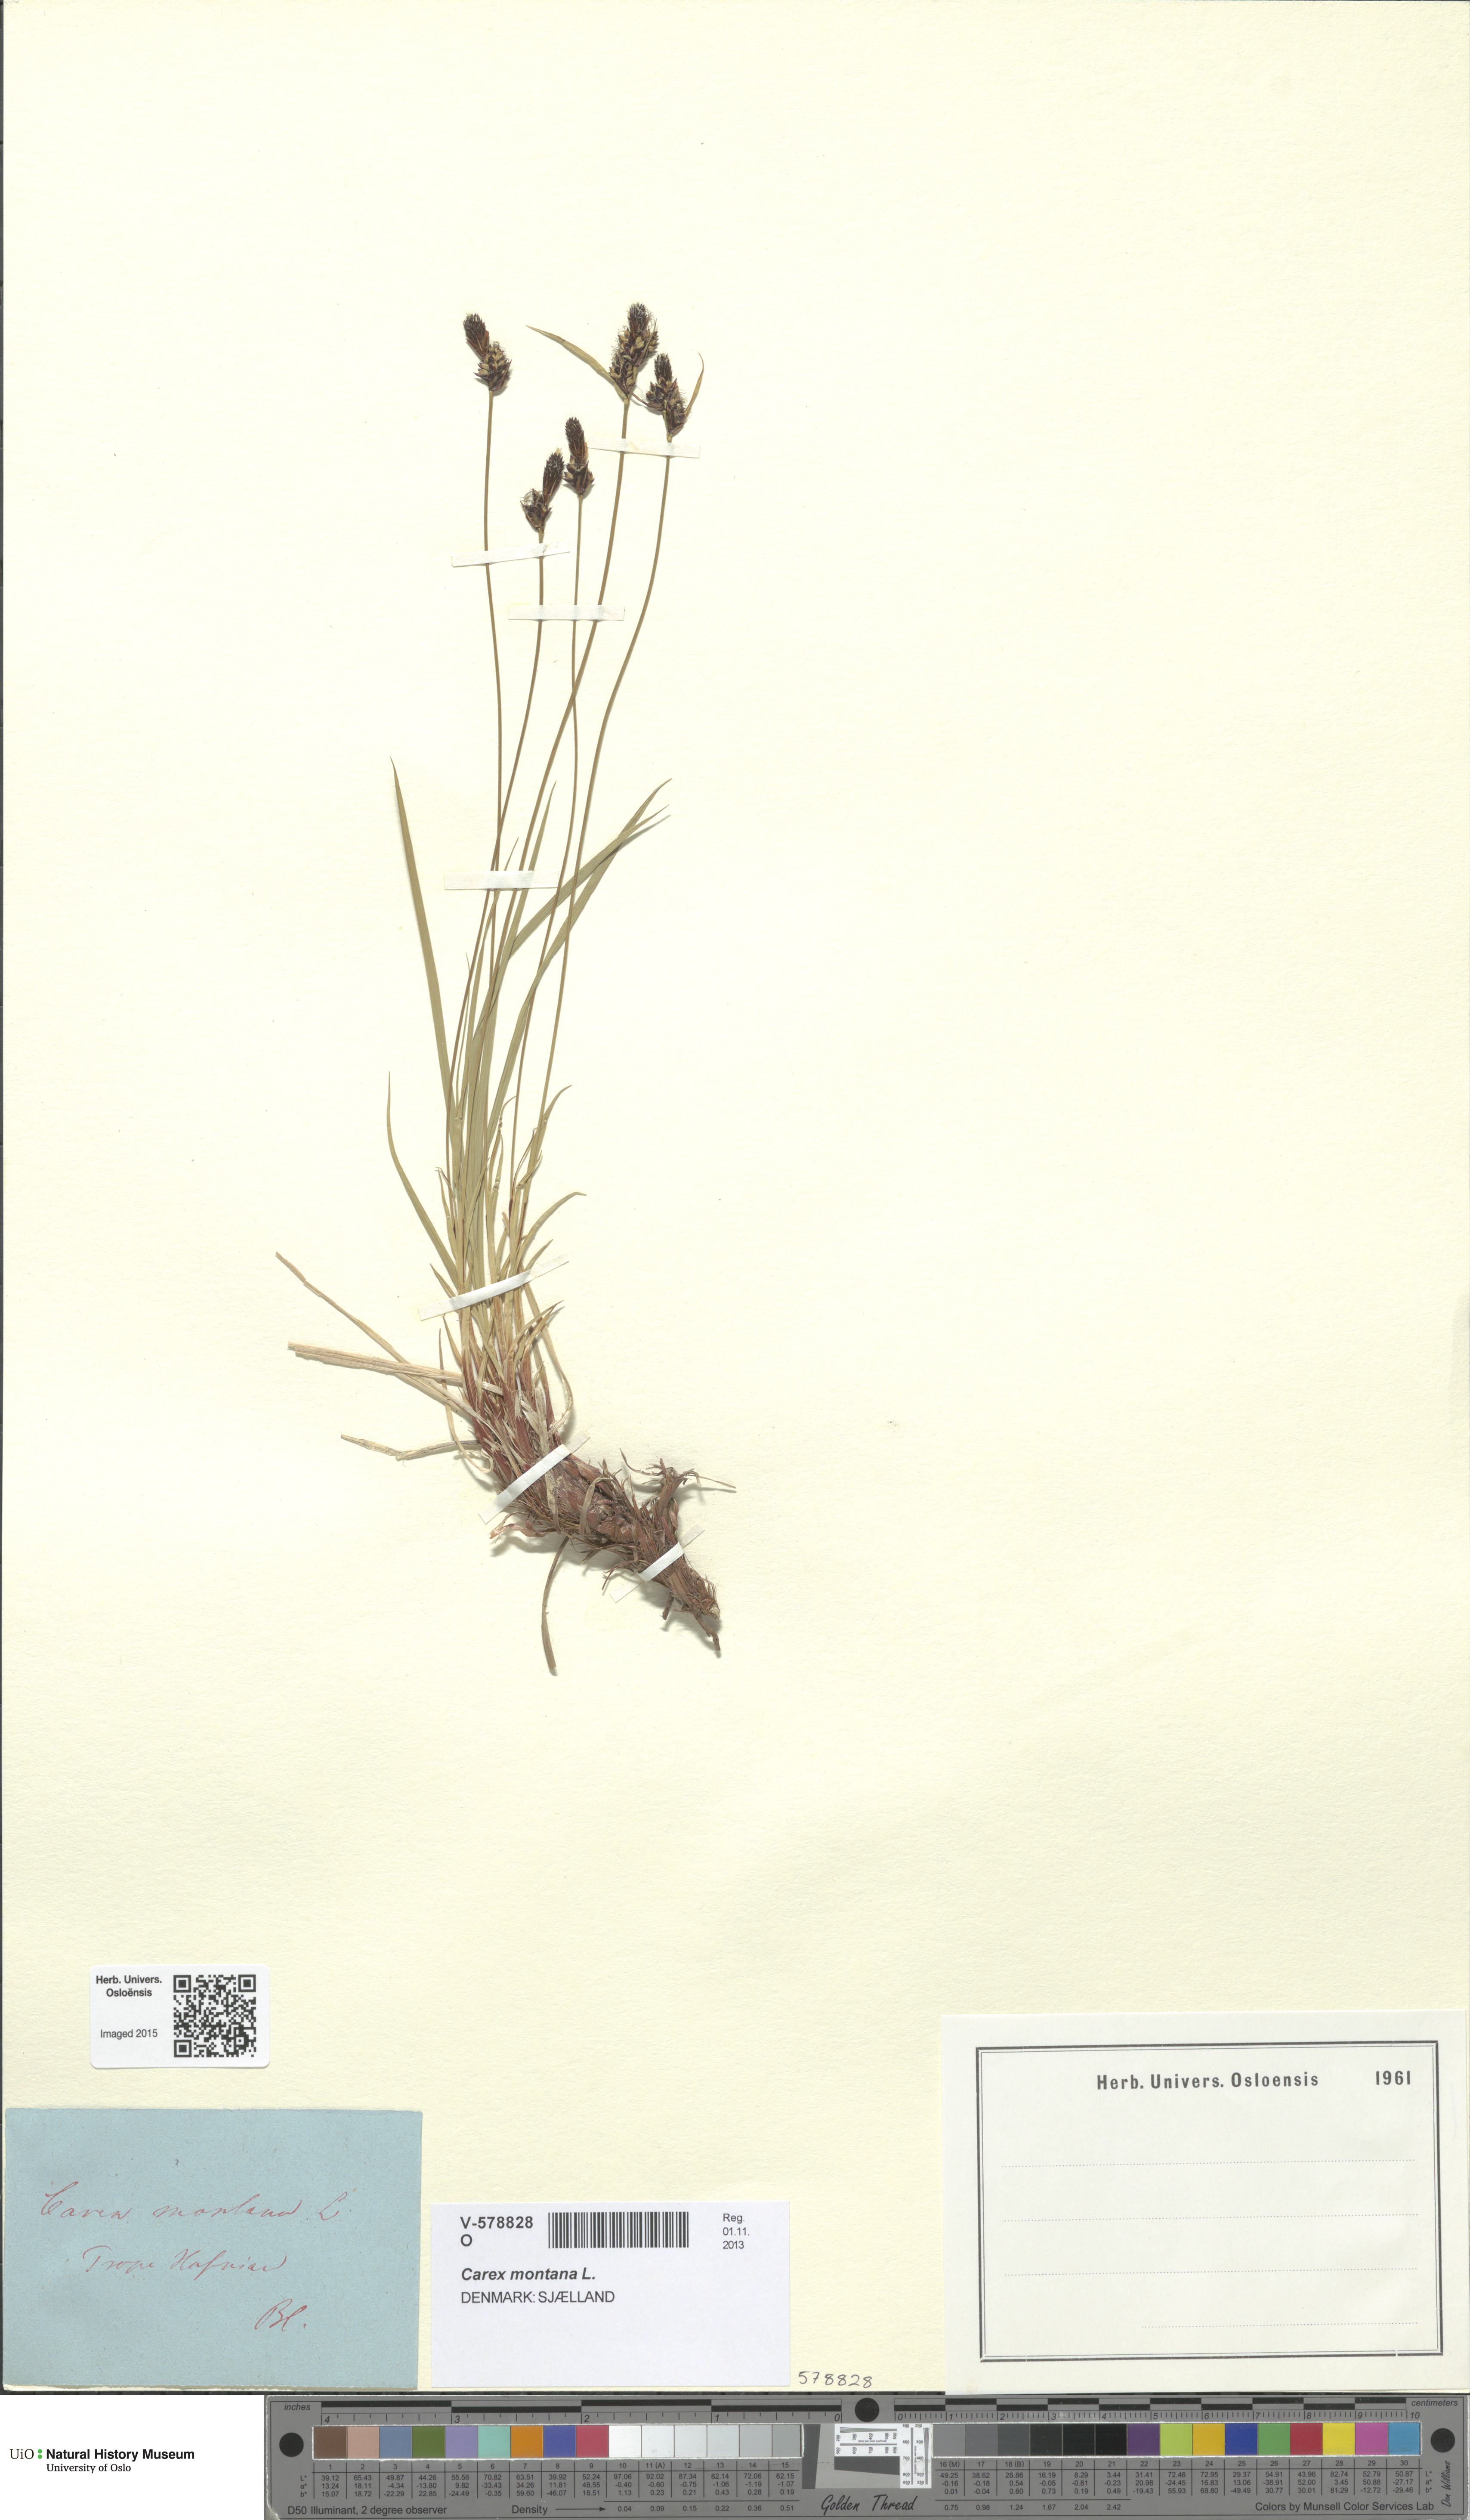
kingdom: Plantae
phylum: Tracheophyta
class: Liliopsida
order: Poales
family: Cyperaceae
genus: Carex
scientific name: Carex montana
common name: Soft-leaved sedge
